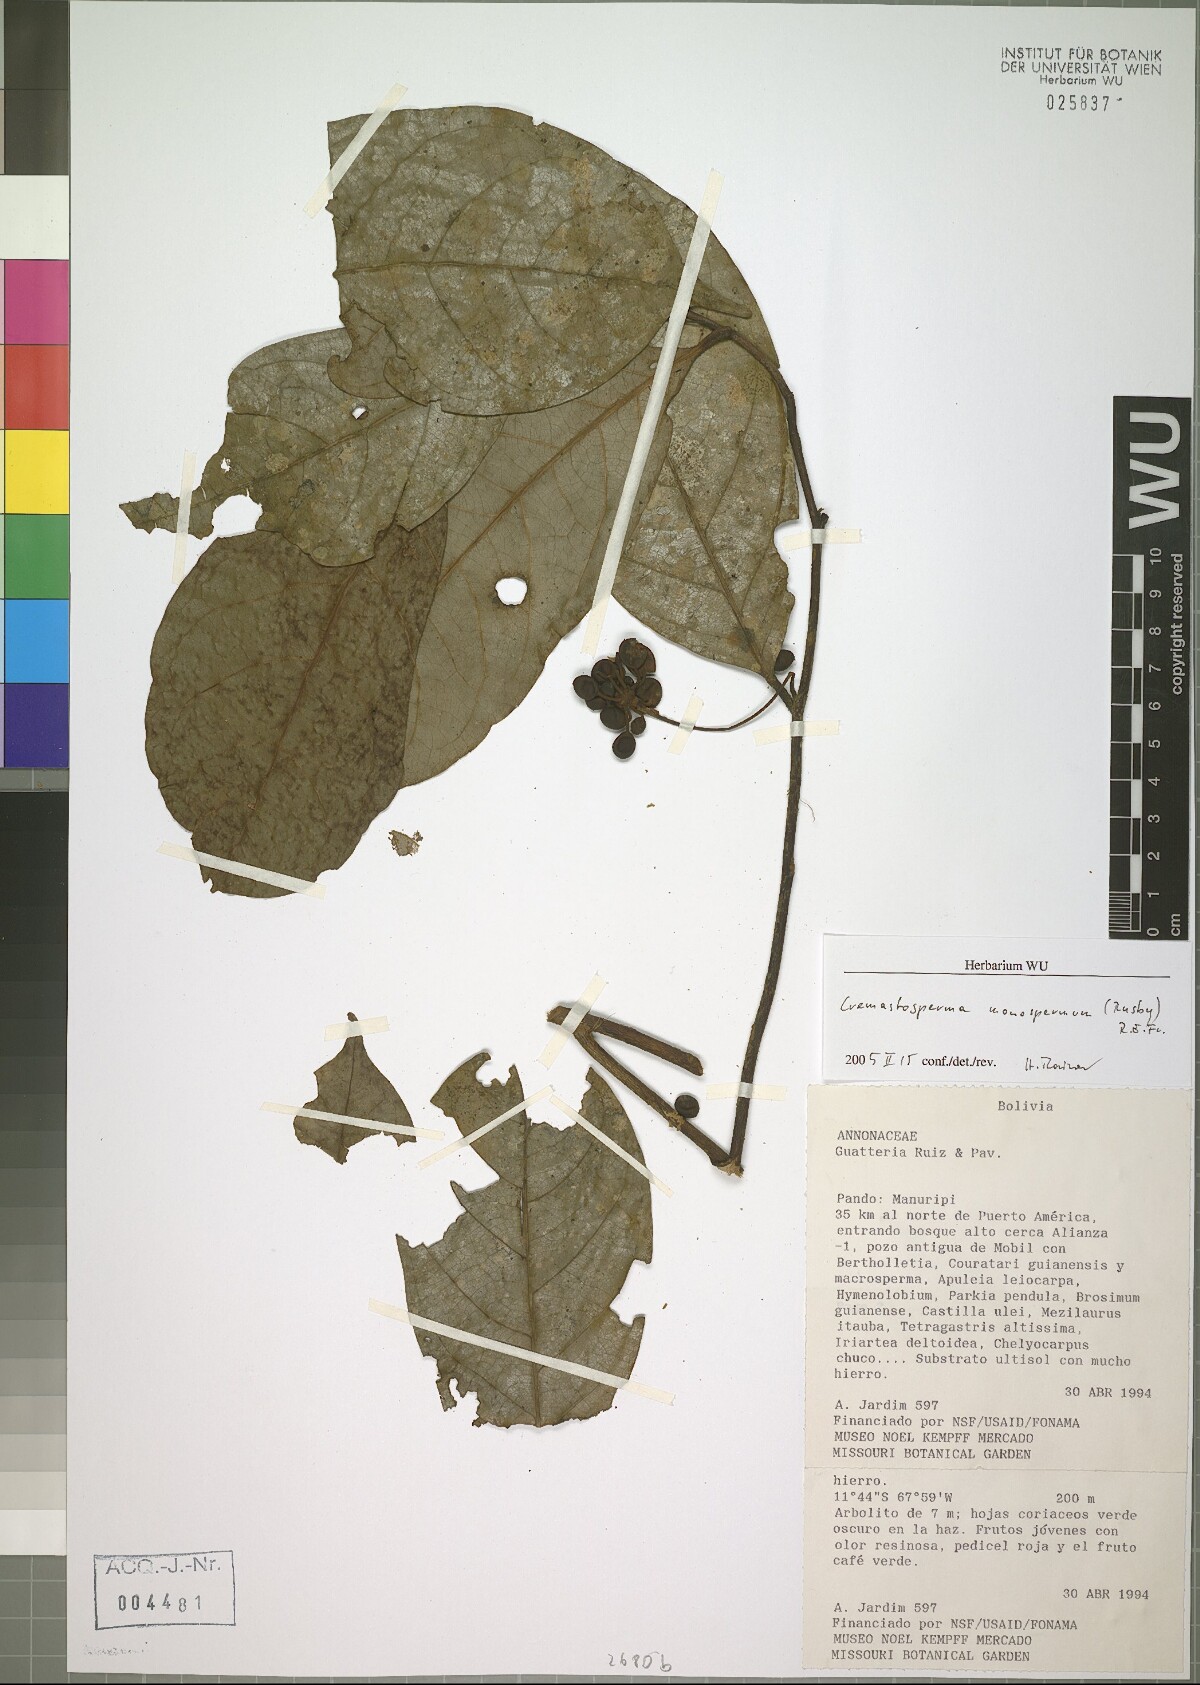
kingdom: Plantae
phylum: Tracheophyta
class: Magnoliopsida
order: Magnoliales
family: Annonaceae
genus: Cremastosperma
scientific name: Cremastosperma monospermum
